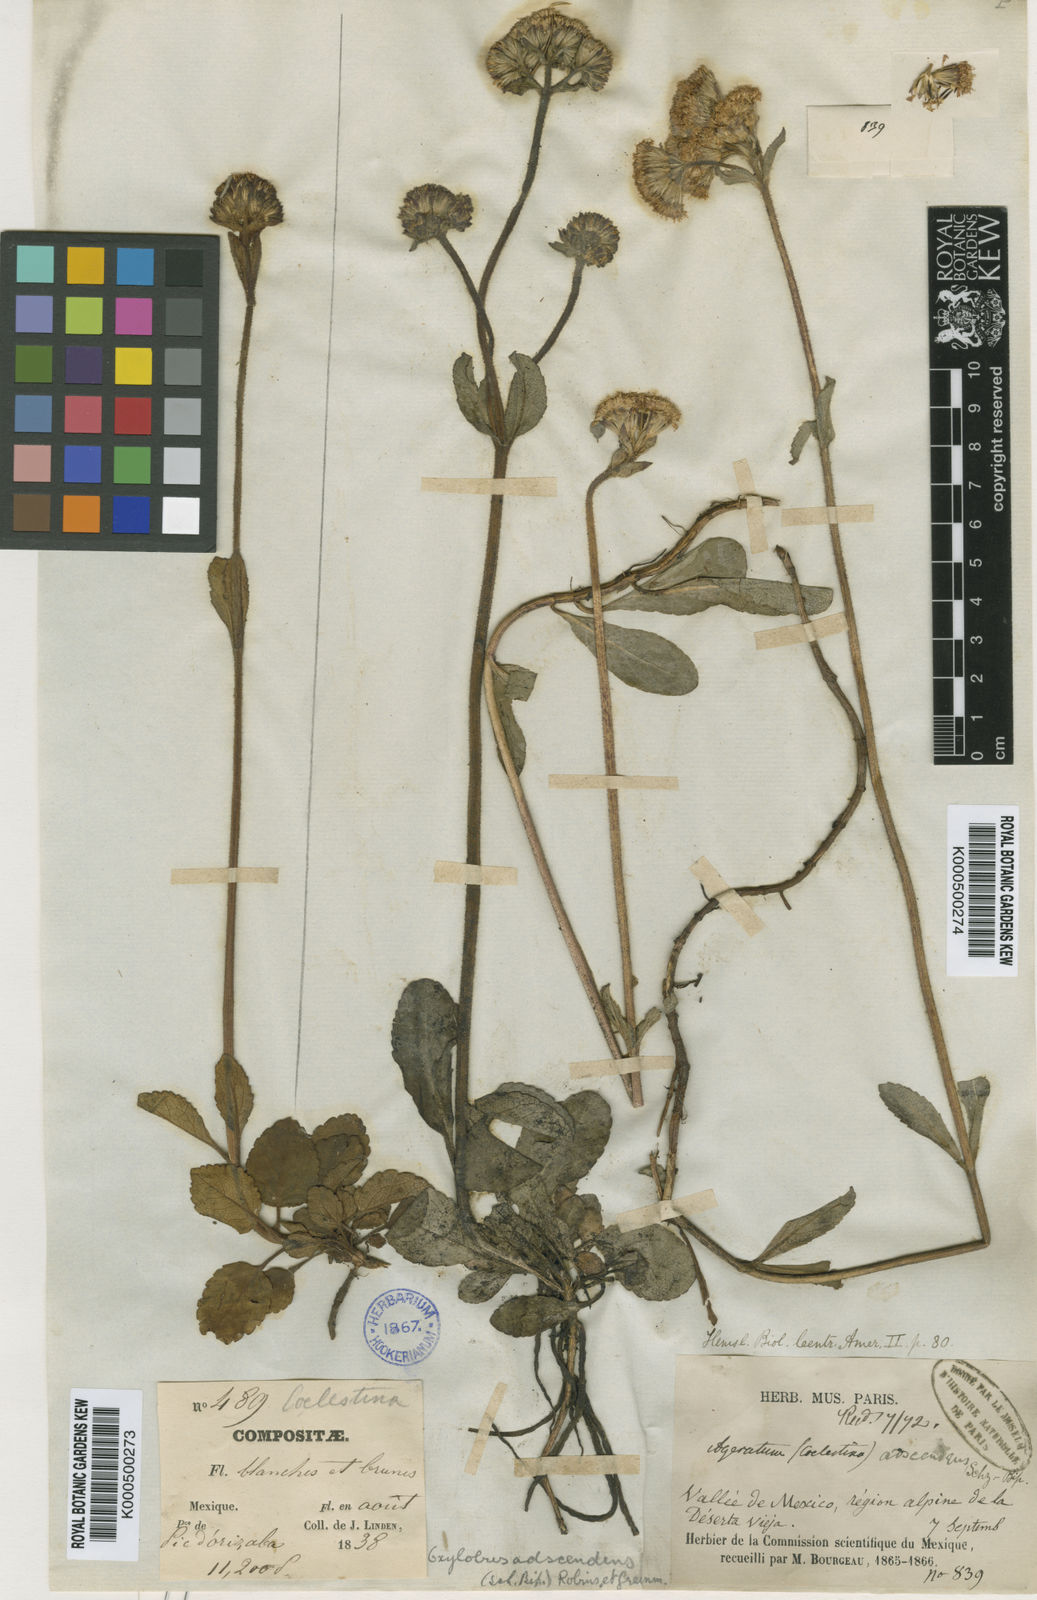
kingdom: Plantae
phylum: Tracheophyta
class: Magnoliopsida
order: Asterales
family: Asteraceae
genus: Oxylobus
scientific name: Oxylobus adscendens
